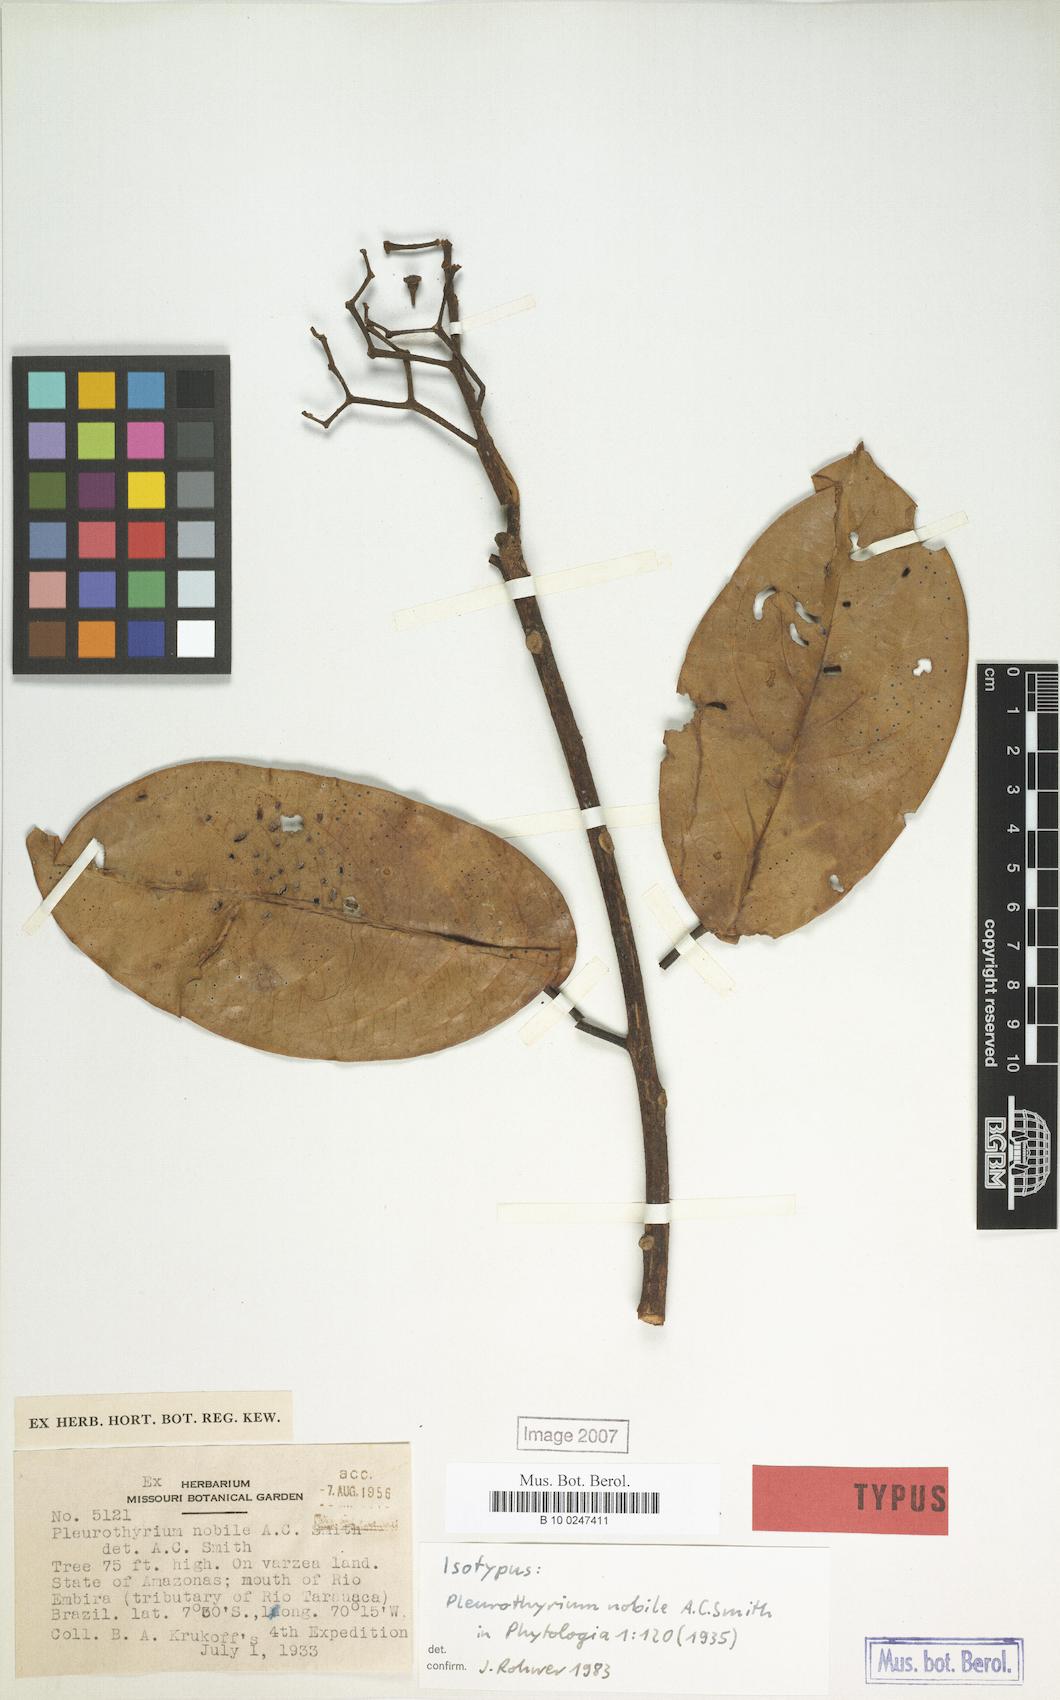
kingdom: Plantae
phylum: Tracheophyta
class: Magnoliopsida
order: Laurales
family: Lauraceae
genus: Ocotea
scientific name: Ocotea nobilis
